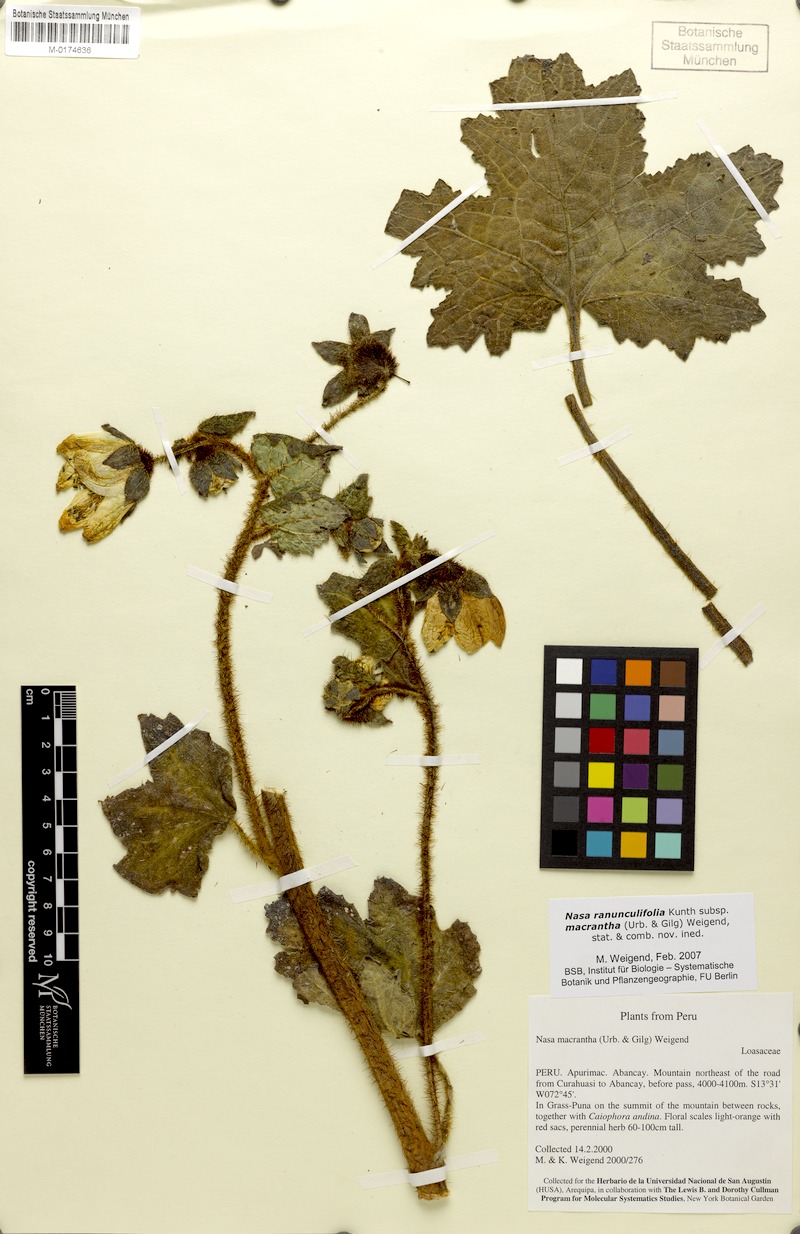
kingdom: Plantae
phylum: Tracheophyta
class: Magnoliopsida
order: Cornales
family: Loasaceae
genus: Nasa
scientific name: Nasa ranunculifolia
